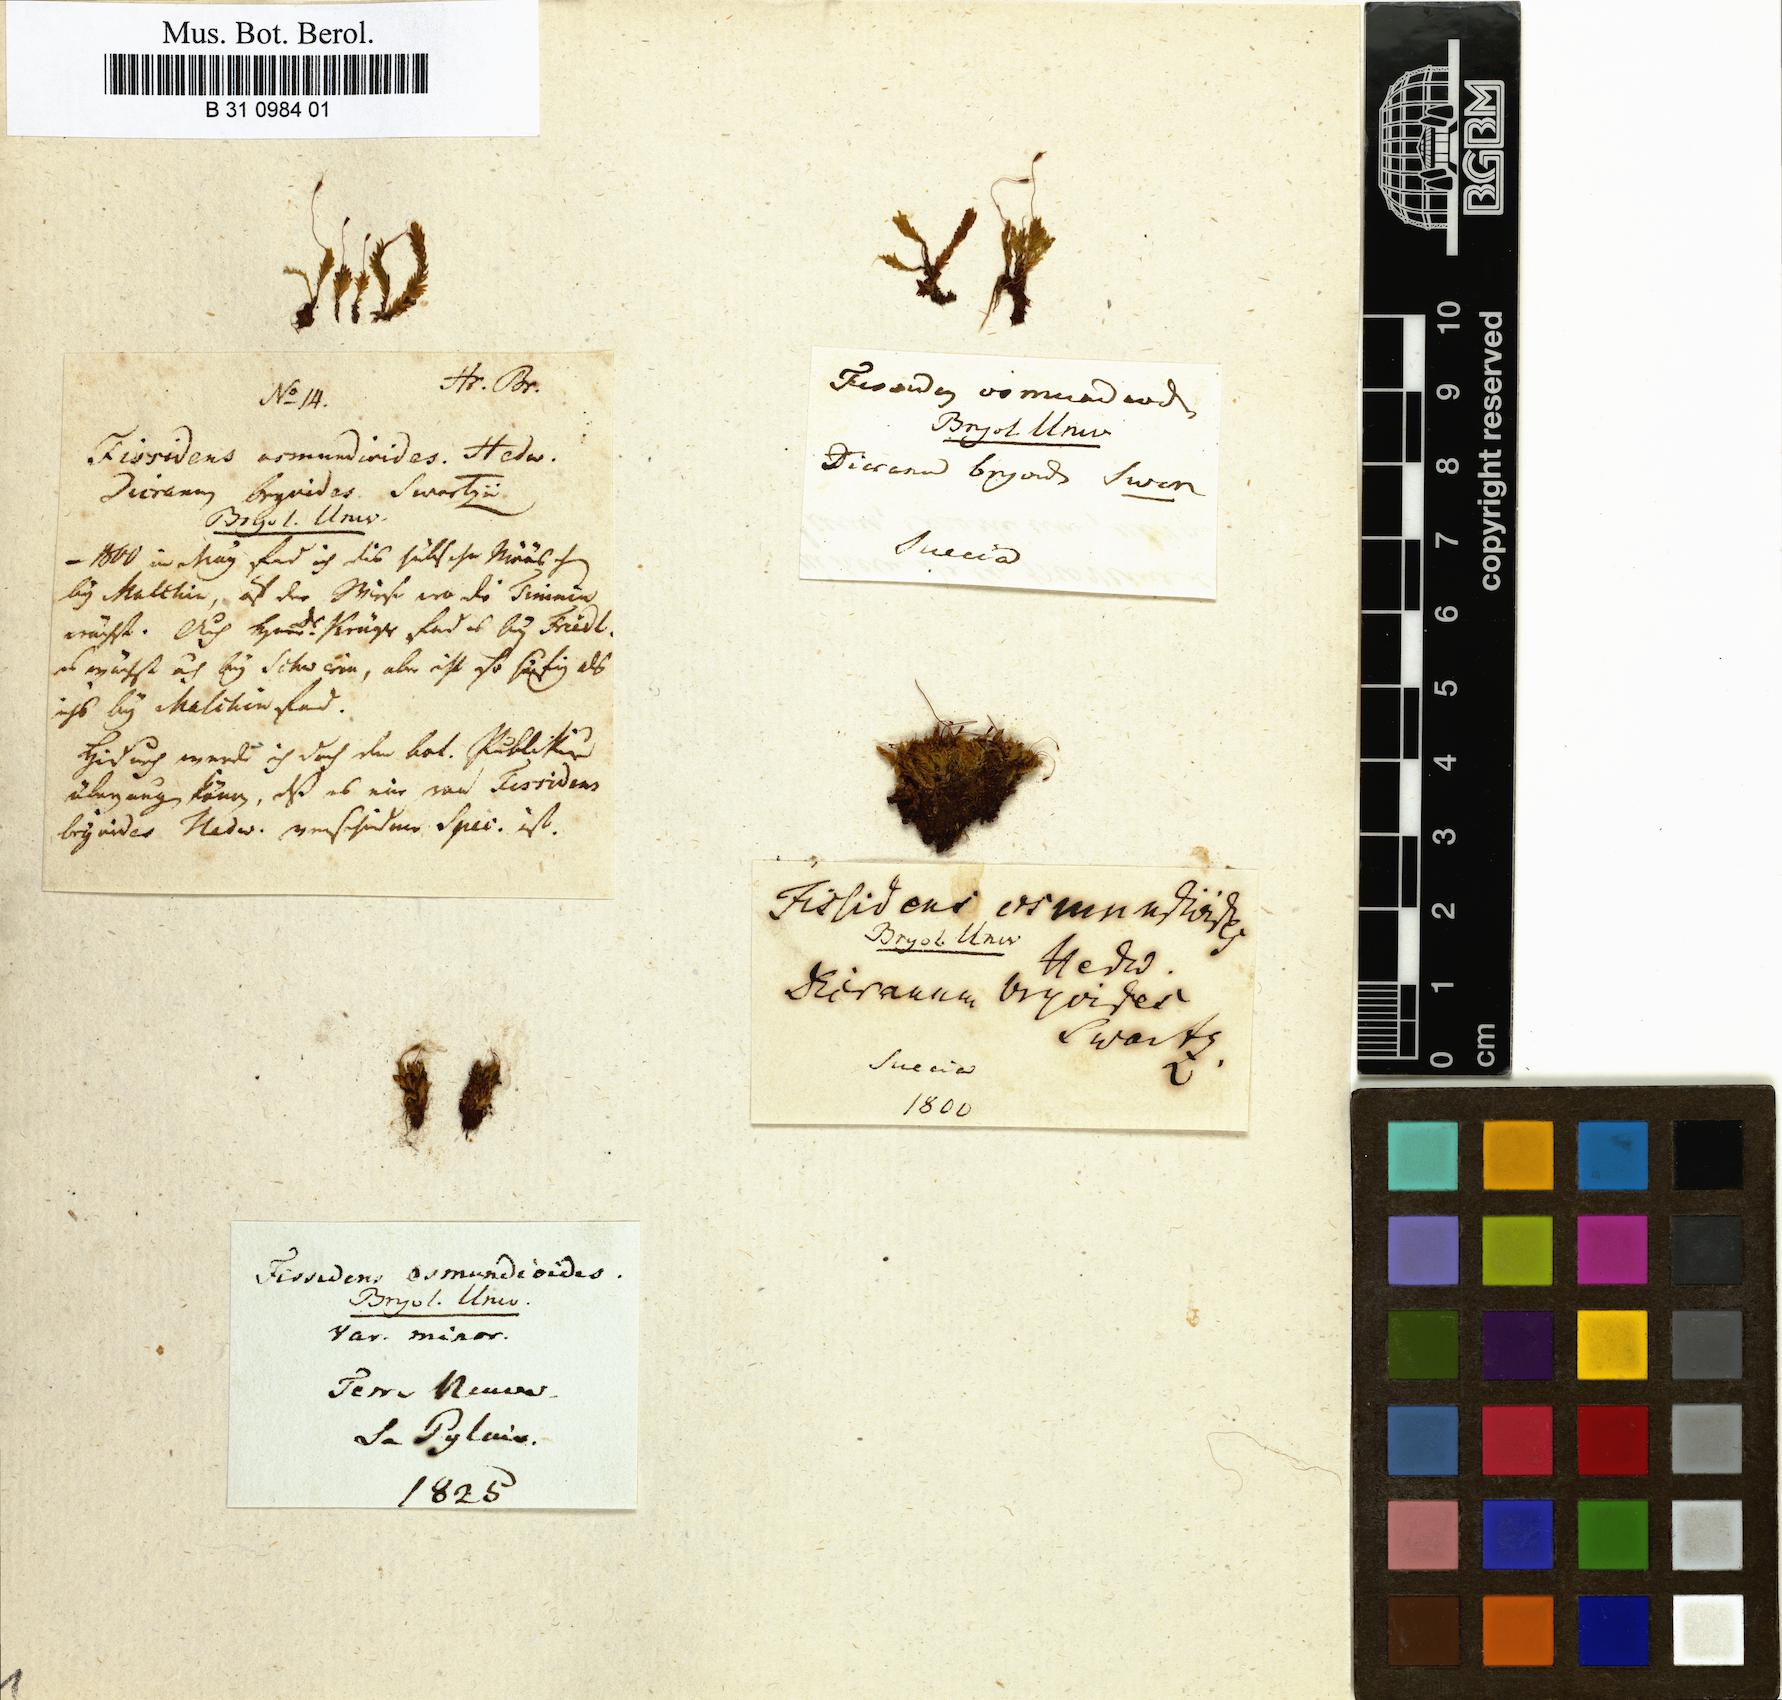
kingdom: Plantae
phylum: Bryophyta
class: Bryopsida
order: Dicranales
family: Fissidentaceae
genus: Fissidens
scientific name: Fissidens osmundoides
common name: Purple-stalked pocket moss
